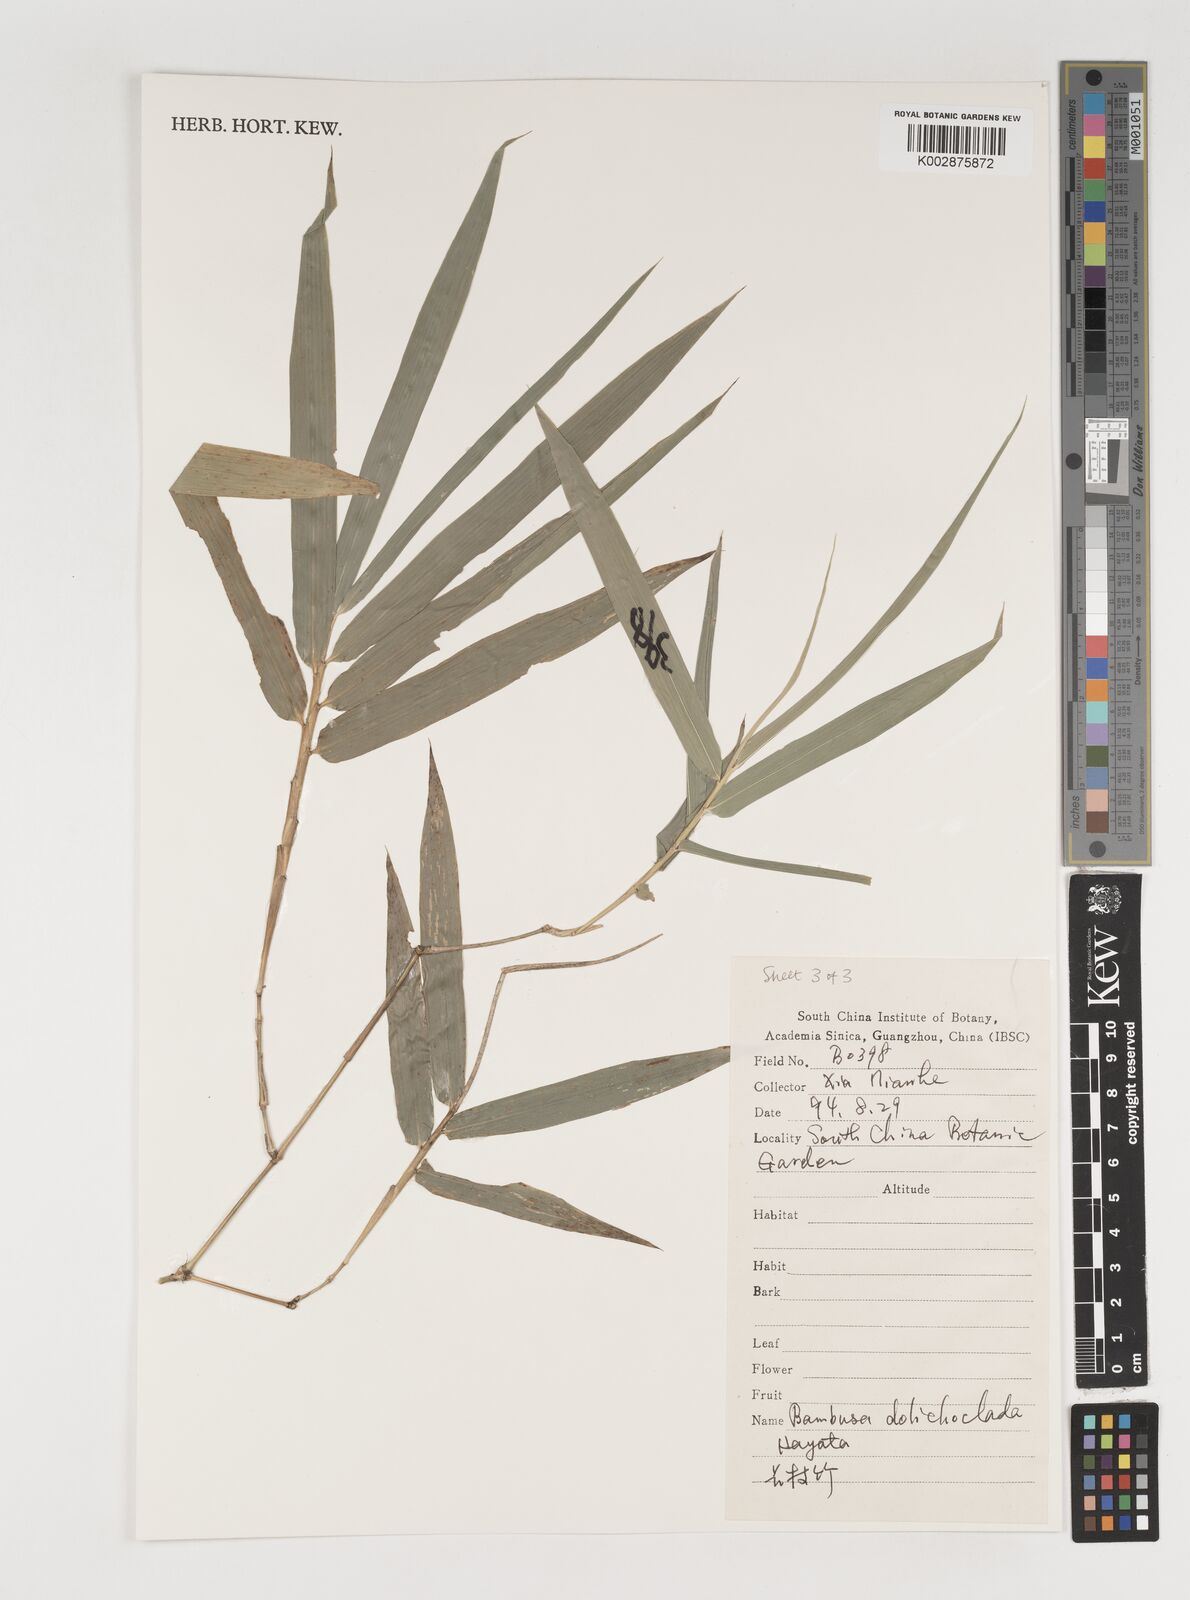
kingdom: Plantae
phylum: Tracheophyta
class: Liliopsida
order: Poales
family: Poaceae
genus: Bambusa
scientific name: Bambusa dolichoclada
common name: Long-shoot bamboo
